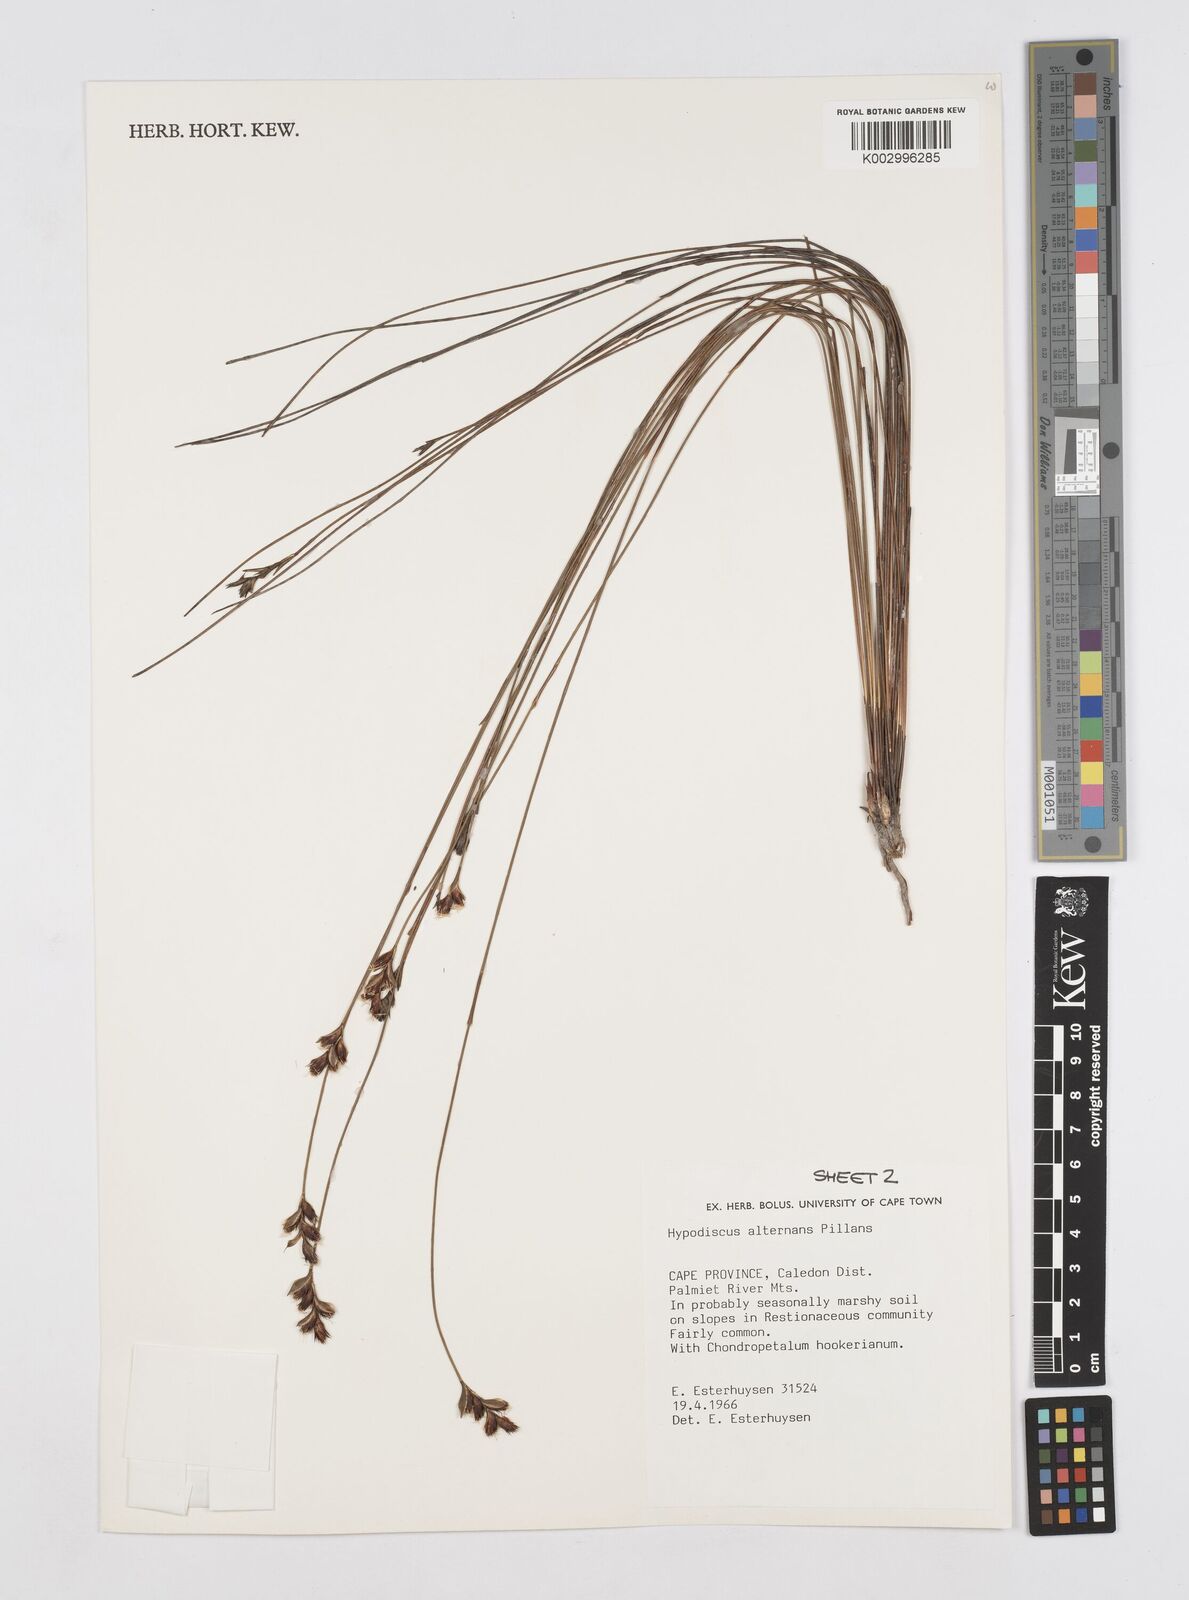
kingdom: Plantae
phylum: Tracheophyta
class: Liliopsida
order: Poales
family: Restionaceae
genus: Hypodiscus
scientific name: Hypodiscus alternans
